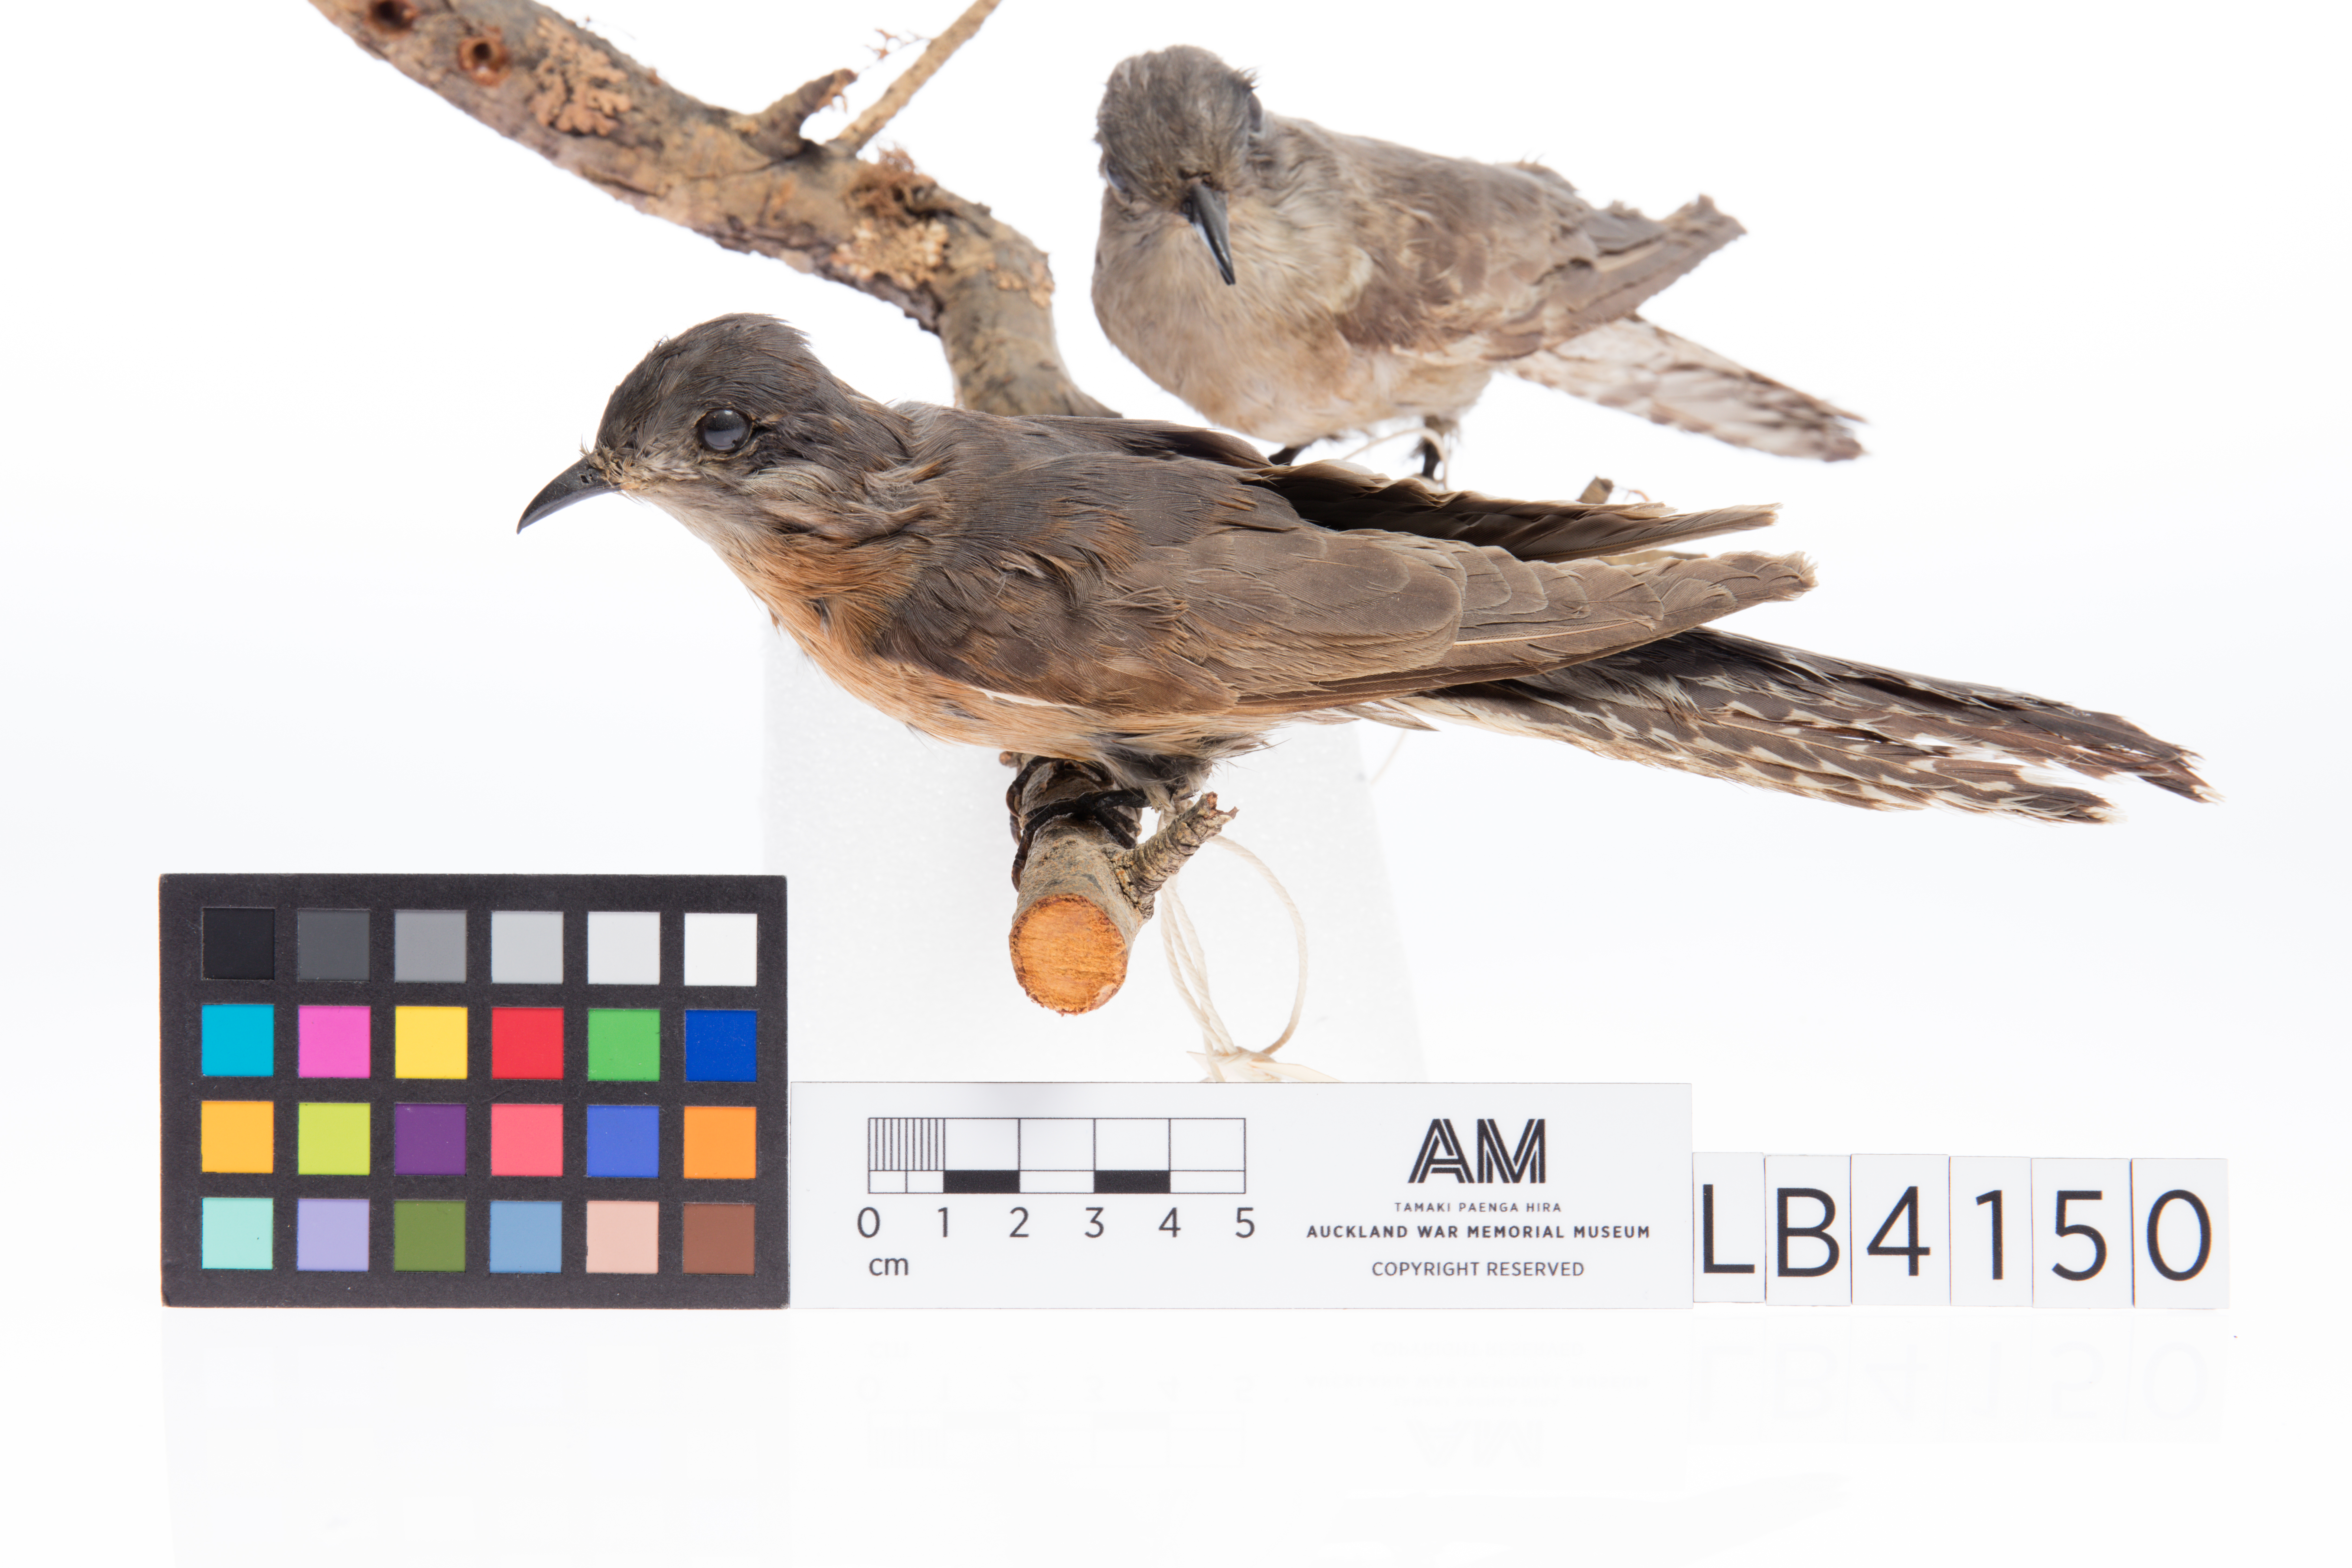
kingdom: Animalia
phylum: Chordata
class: Aves
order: Cuculiformes
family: Cuculidae
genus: Cacomantis
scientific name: Cacomantis flabelliformis
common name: Fan-tailed cuckoo
